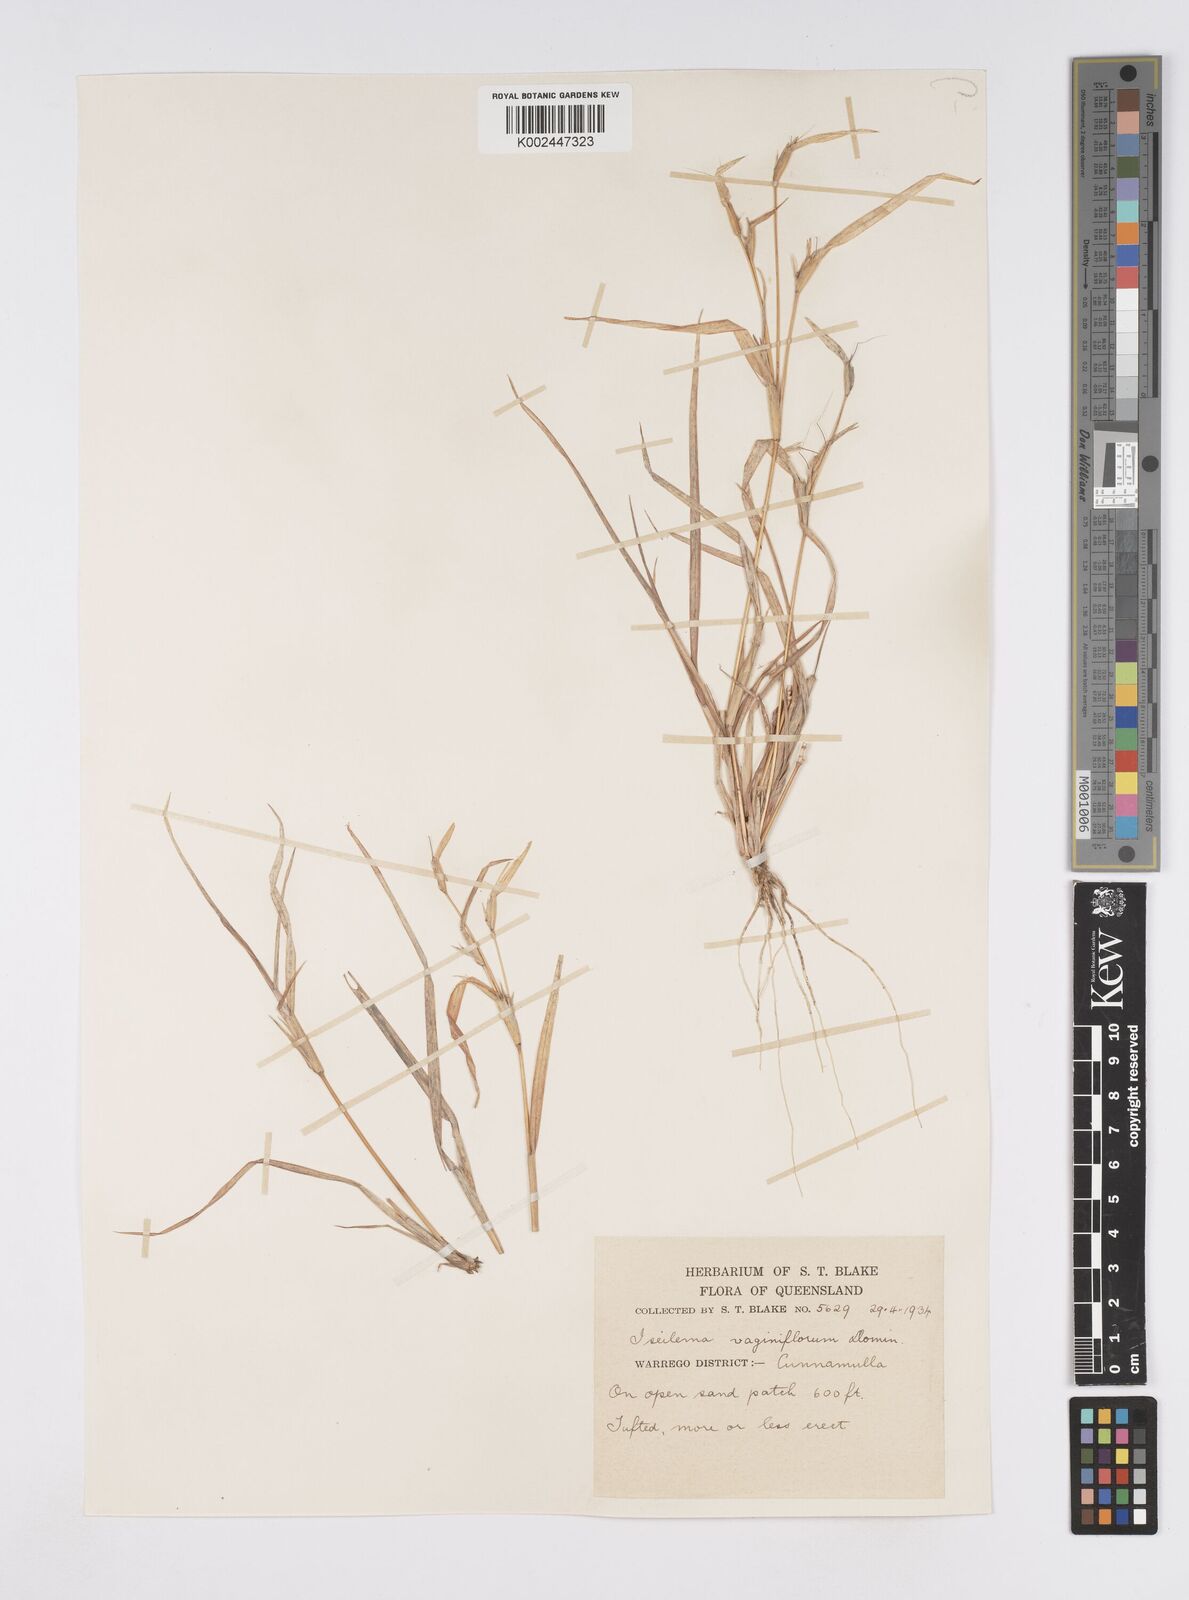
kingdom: Plantae
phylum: Tracheophyta
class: Liliopsida
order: Poales
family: Poaceae
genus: Iseilema
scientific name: Iseilema vaginiflorum
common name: Red flinders grass
